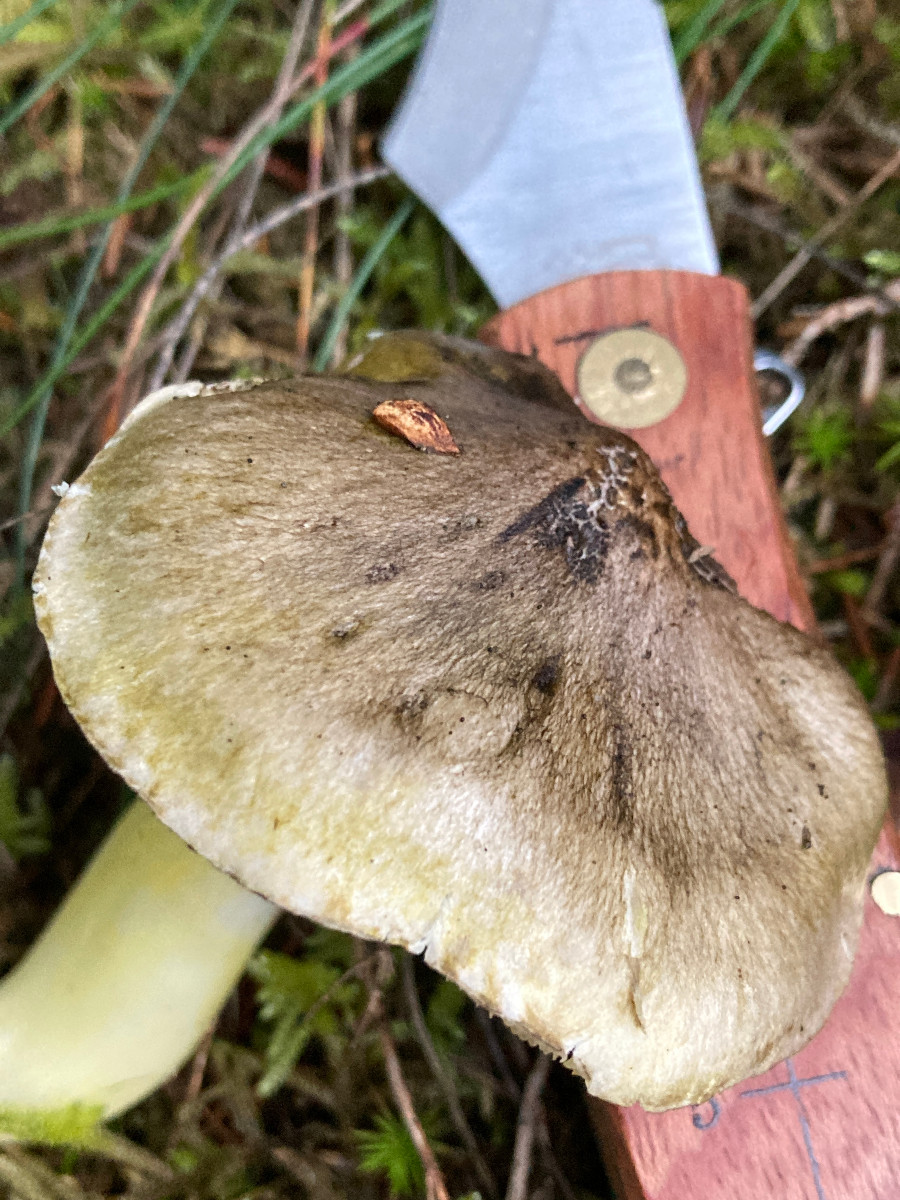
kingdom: Fungi
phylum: Basidiomycota
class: Agaricomycetes
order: Agaricales
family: Tricholomataceae
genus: Tricholoma
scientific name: Tricholoma viridilutescens
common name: sortøjet ridderhat
